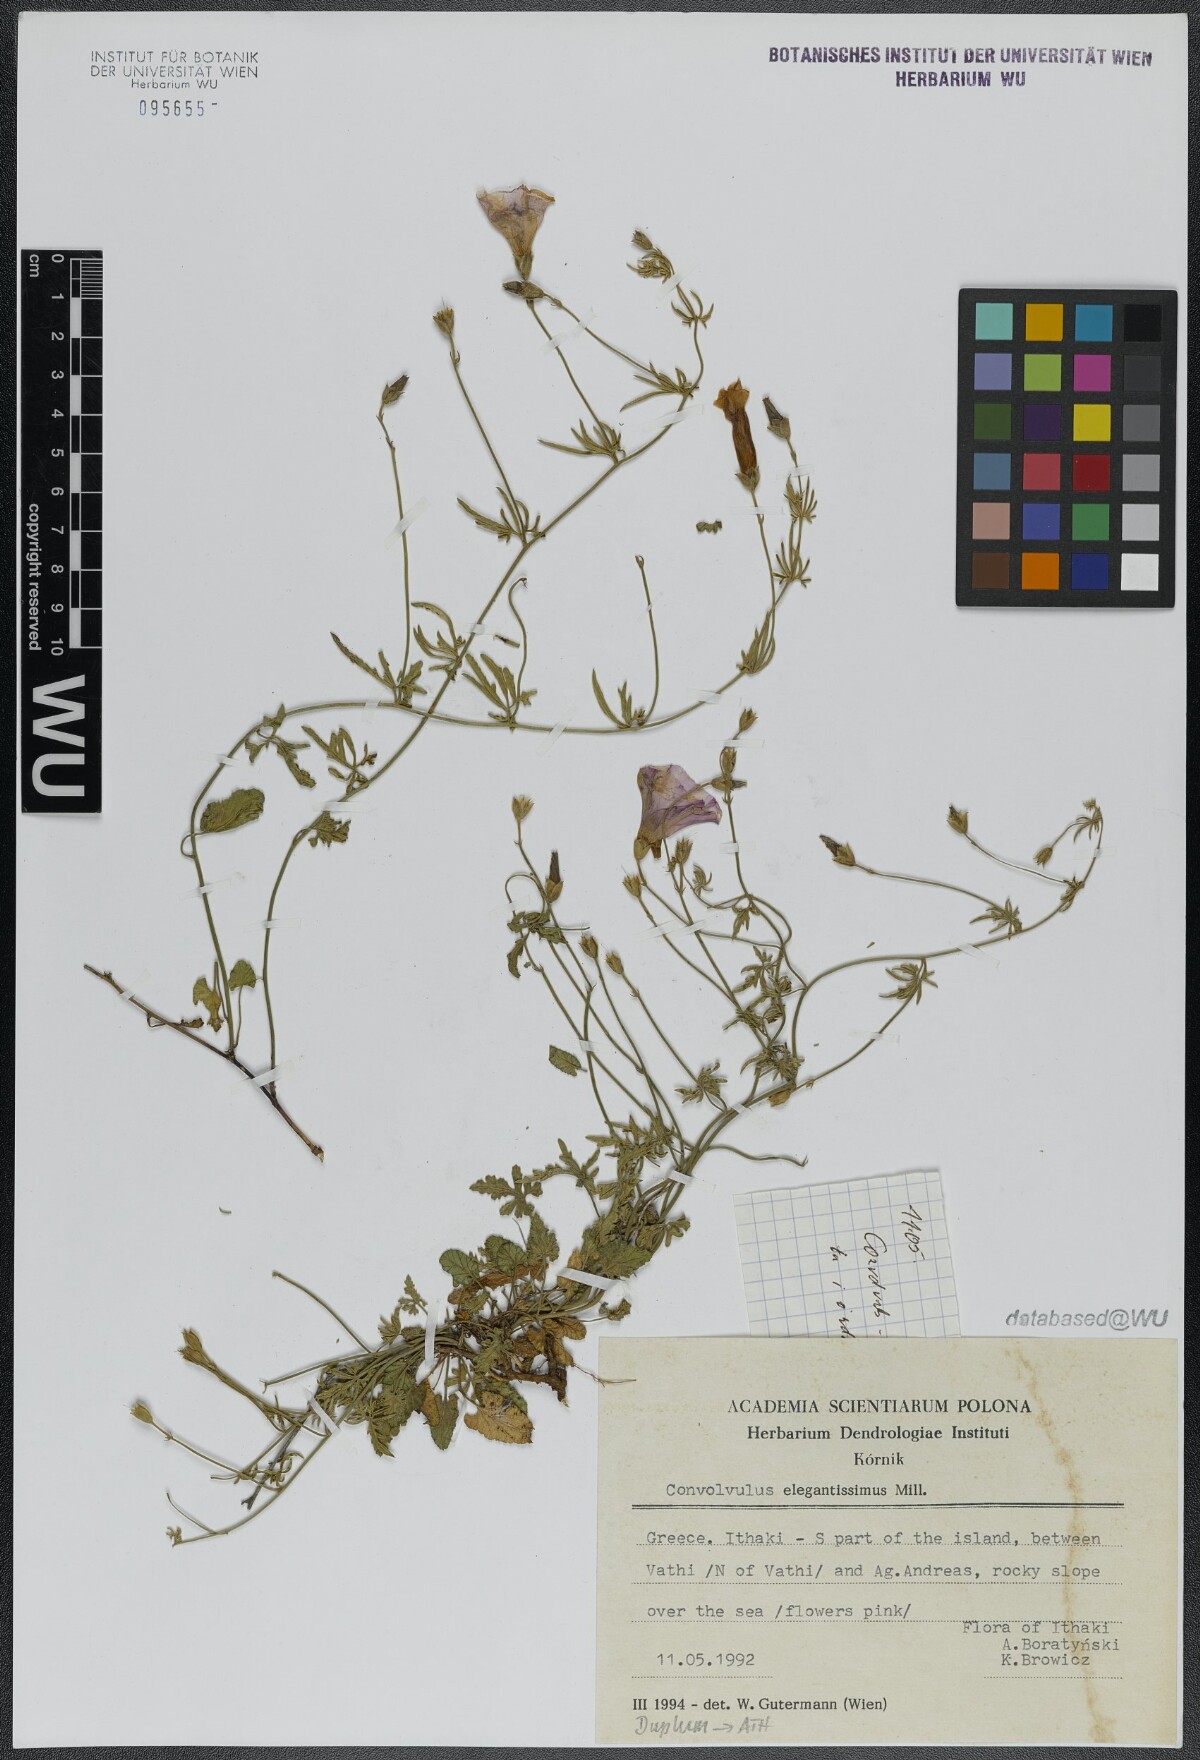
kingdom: Plantae
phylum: Tracheophyta
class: Magnoliopsida
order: Solanales
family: Convolvulaceae
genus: Convolvulus
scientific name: Convolvulus elegantissimus
